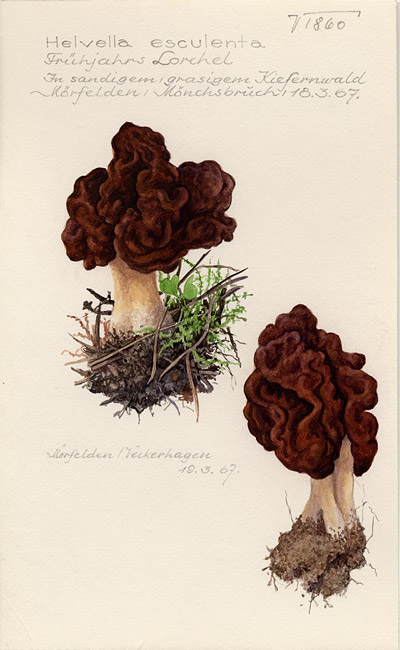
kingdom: Fungi
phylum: Ascomycota
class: Pezizomycetes
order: Pezizales
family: Discinaceae
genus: Gyromitra
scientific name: Gyromitra esculenta
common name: False morel
